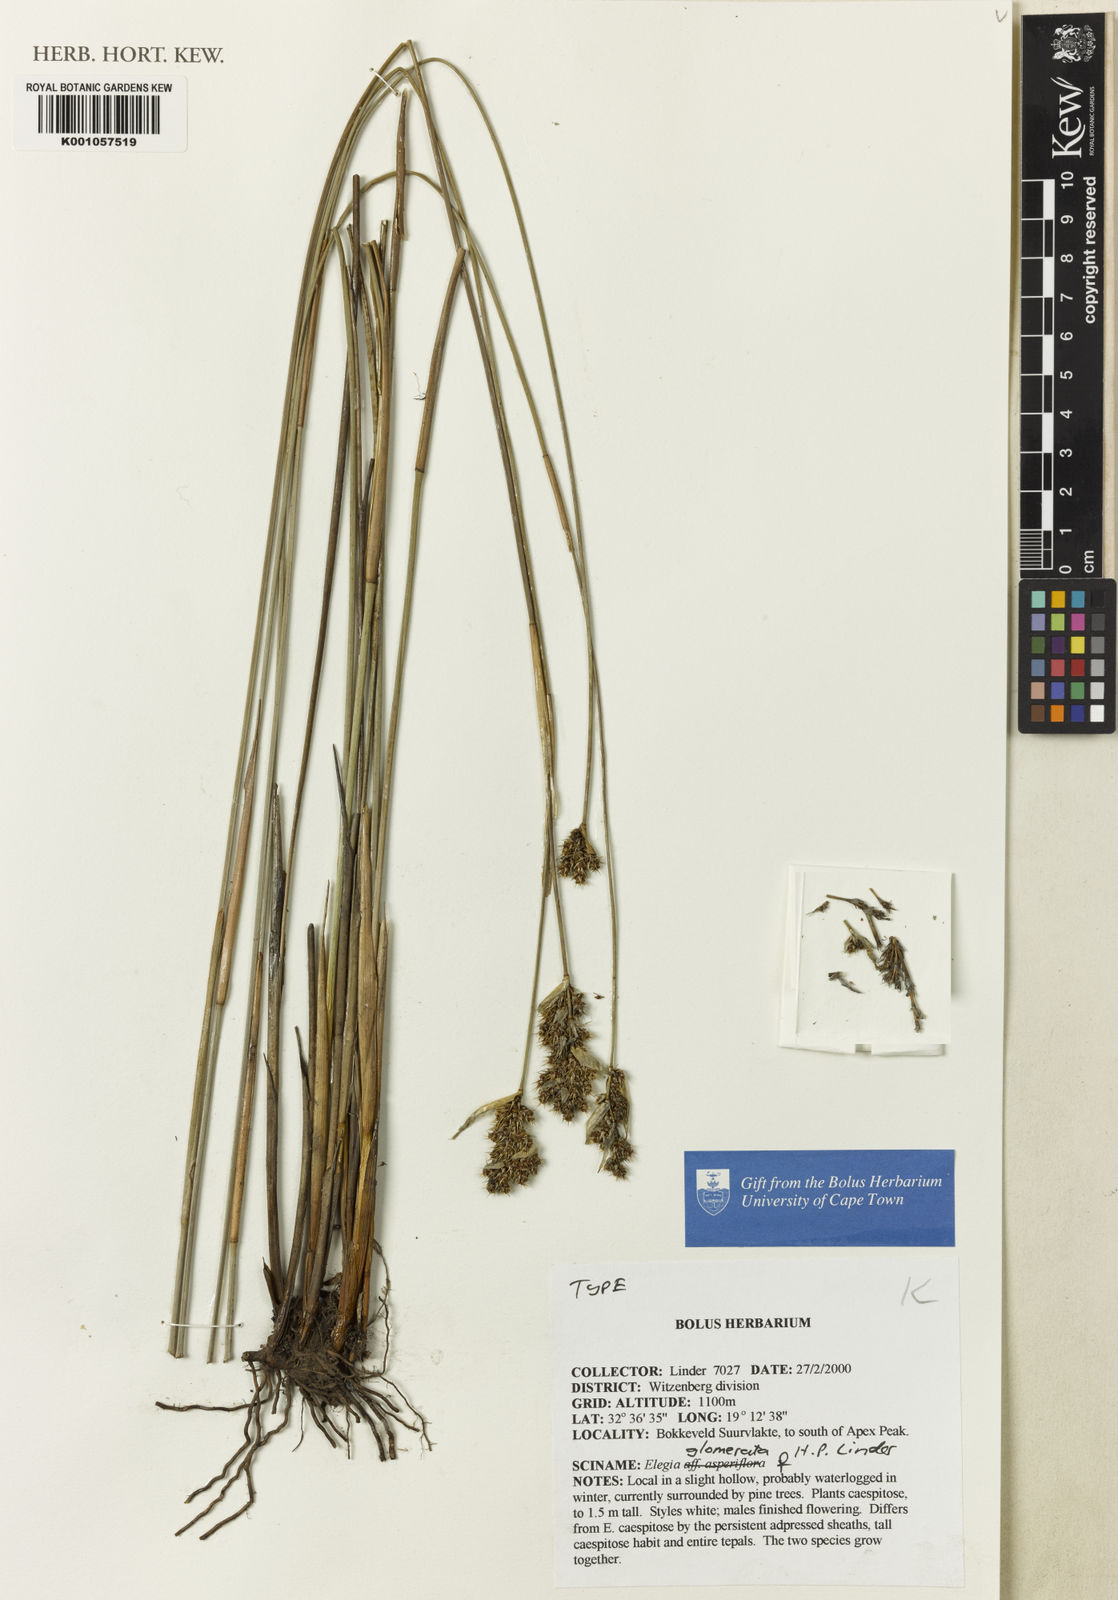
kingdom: Plantae
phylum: Tracheophyta
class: Liliopsida
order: Poales
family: Restionaceae
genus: Elegia
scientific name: Elegia
